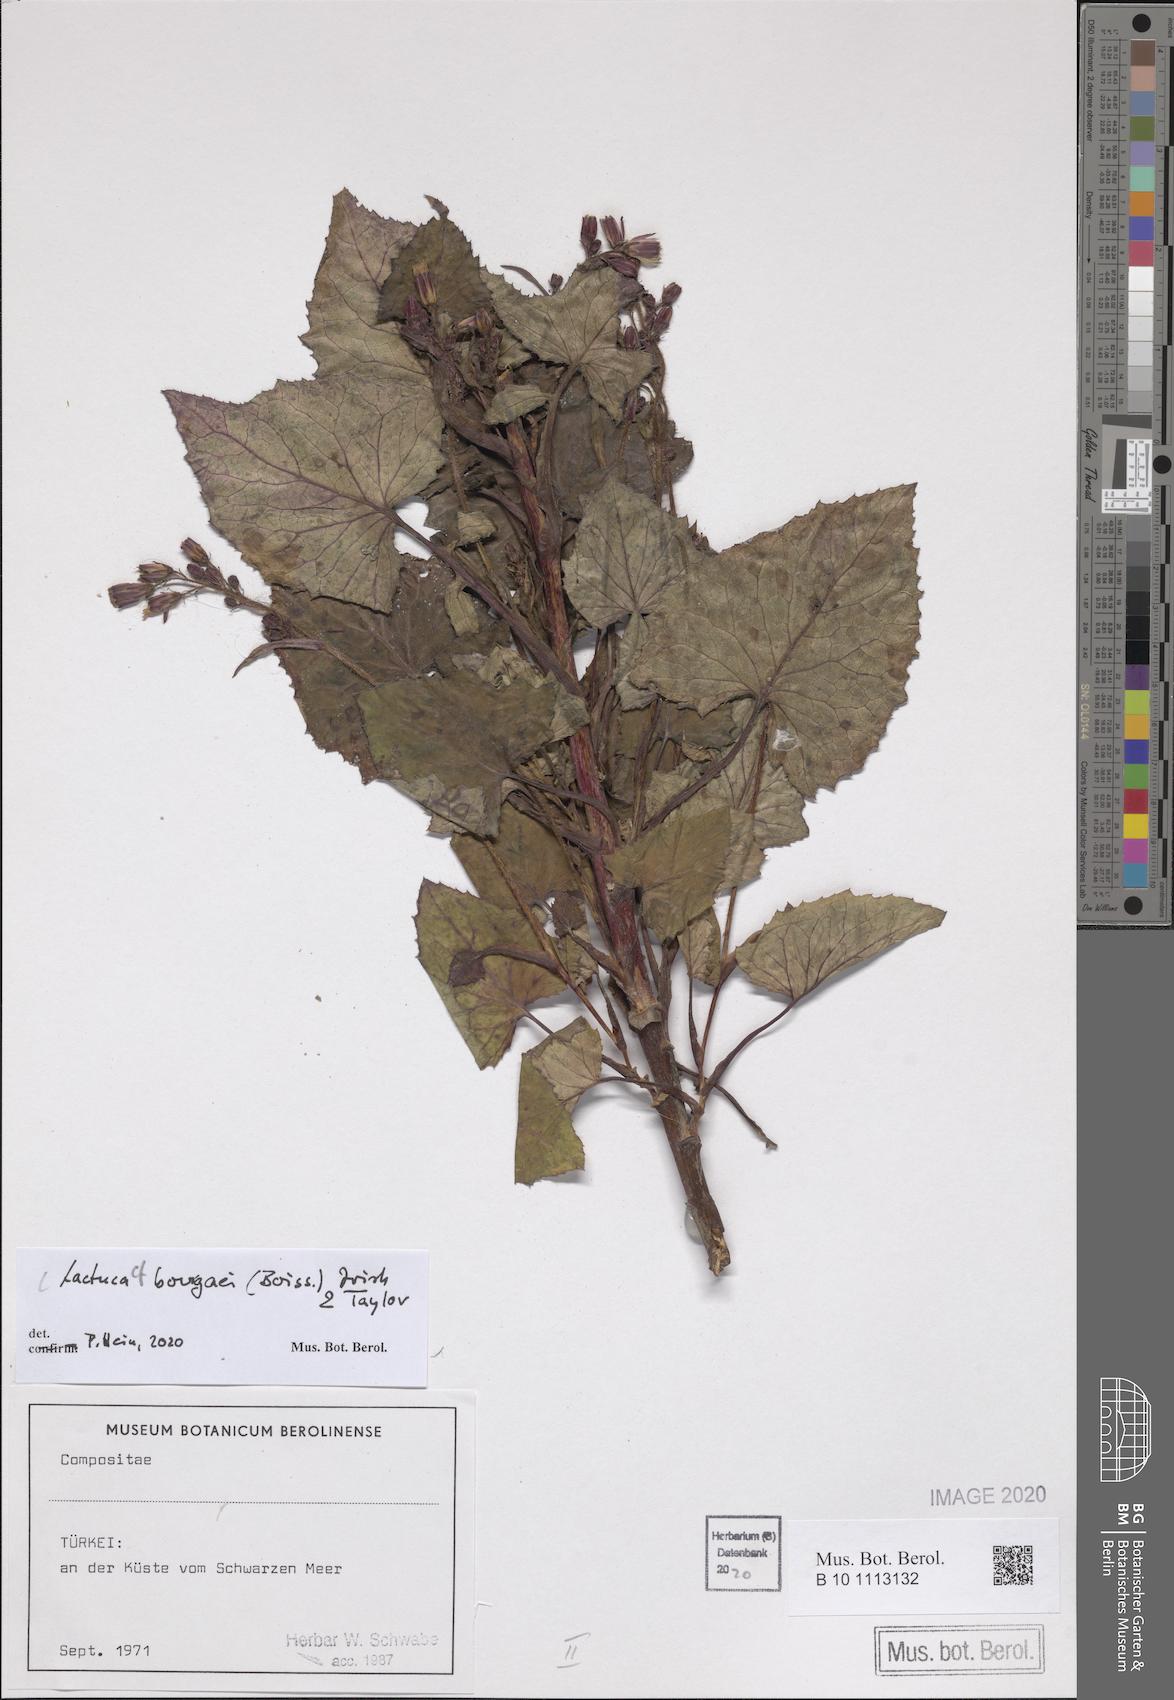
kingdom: Plantae
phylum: Tracheophyta
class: Magnoliopsida
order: Asterales
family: Asteraceae
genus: Lactuca
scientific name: Lactuca bourgaei
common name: Pontic blue-sow-thistle
